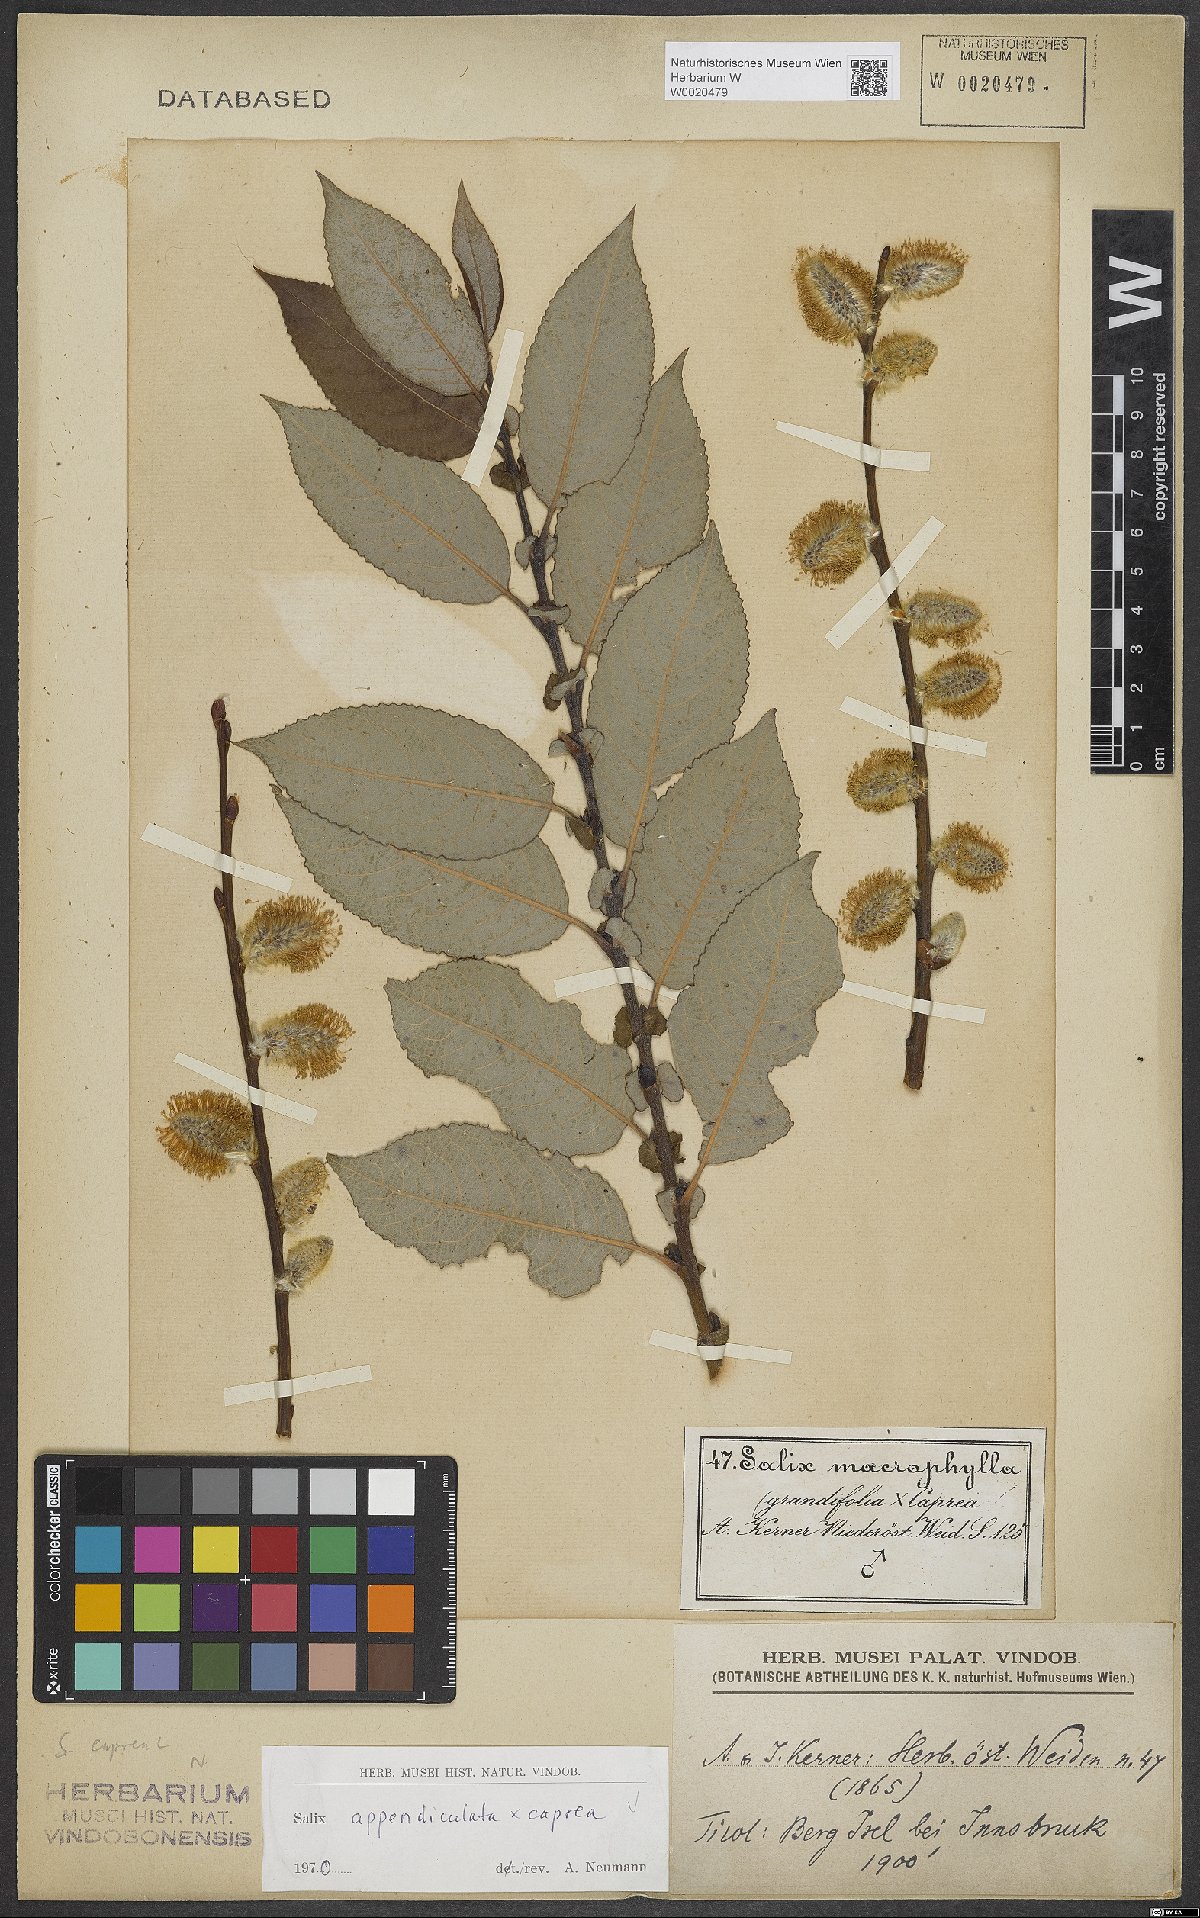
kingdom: Plantae
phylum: Tracheophyta
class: Magnoliopsida
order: Malpighiales
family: Salicaceae
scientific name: Salicaceae
